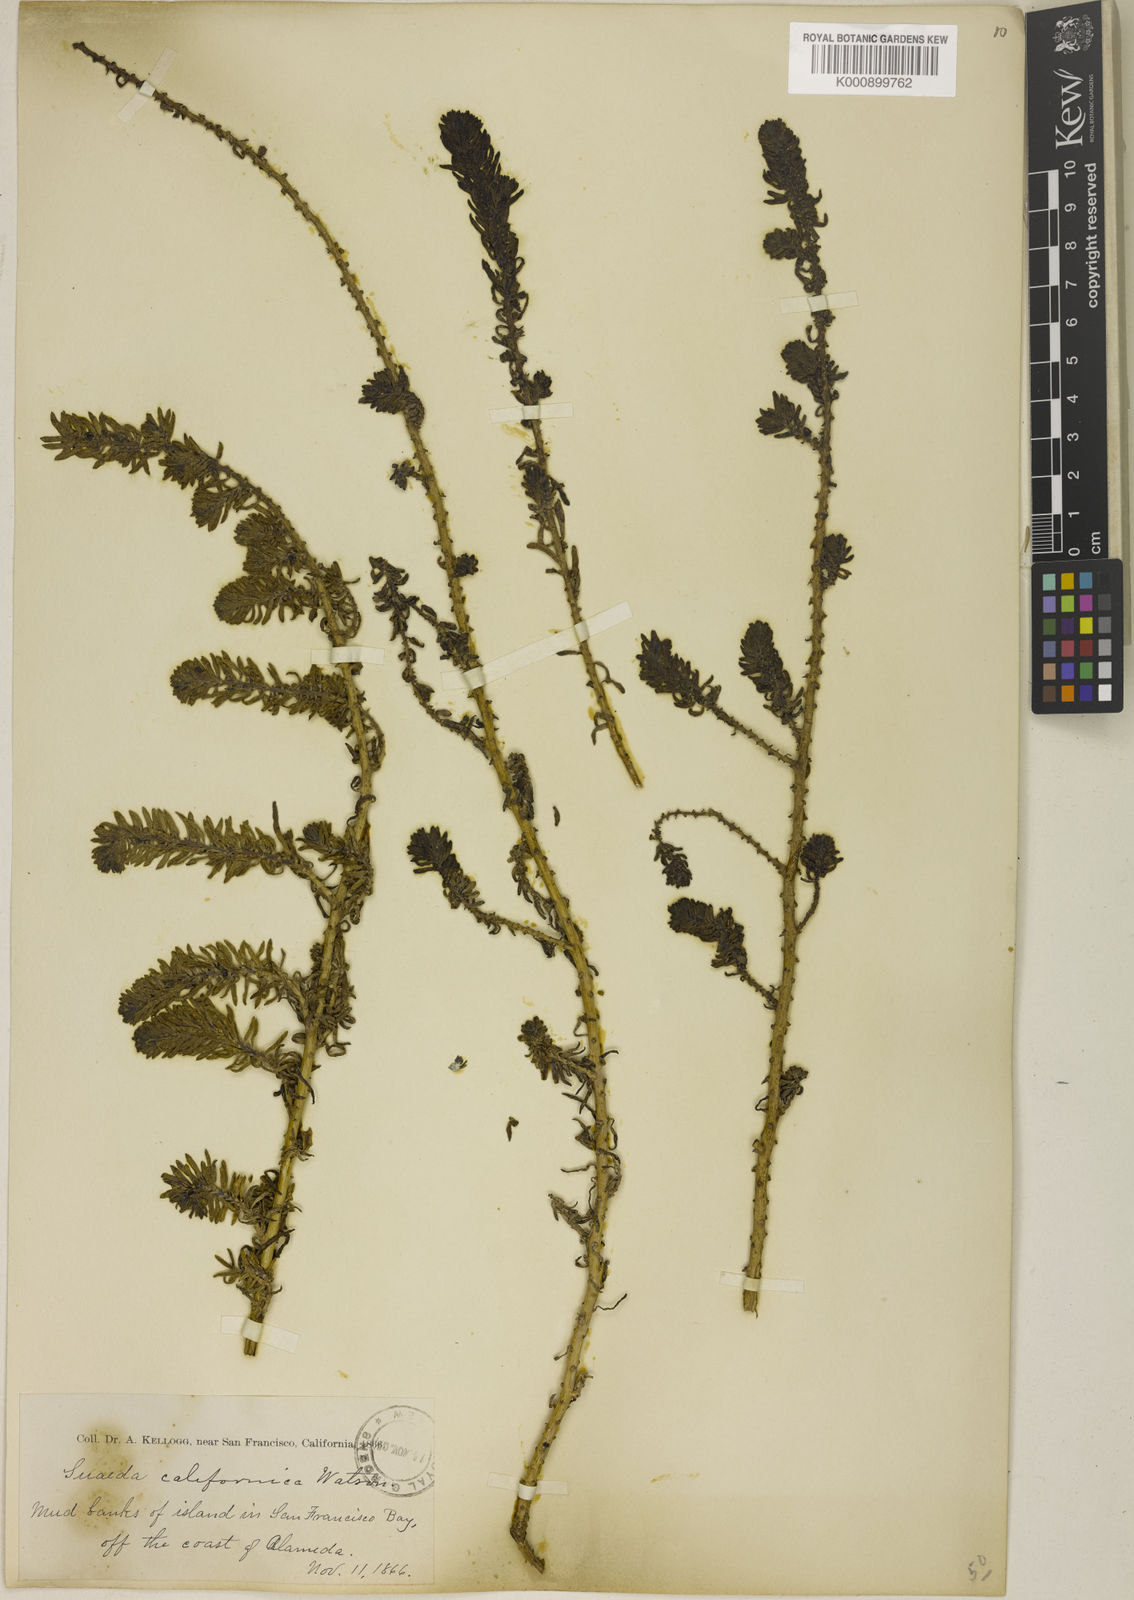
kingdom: Plantae
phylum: Tracheophyta
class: Magnoliopsida
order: Caryophyllales
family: Amaranthaceae
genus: Suaeda
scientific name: Suaeda californica
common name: California sea-blite
